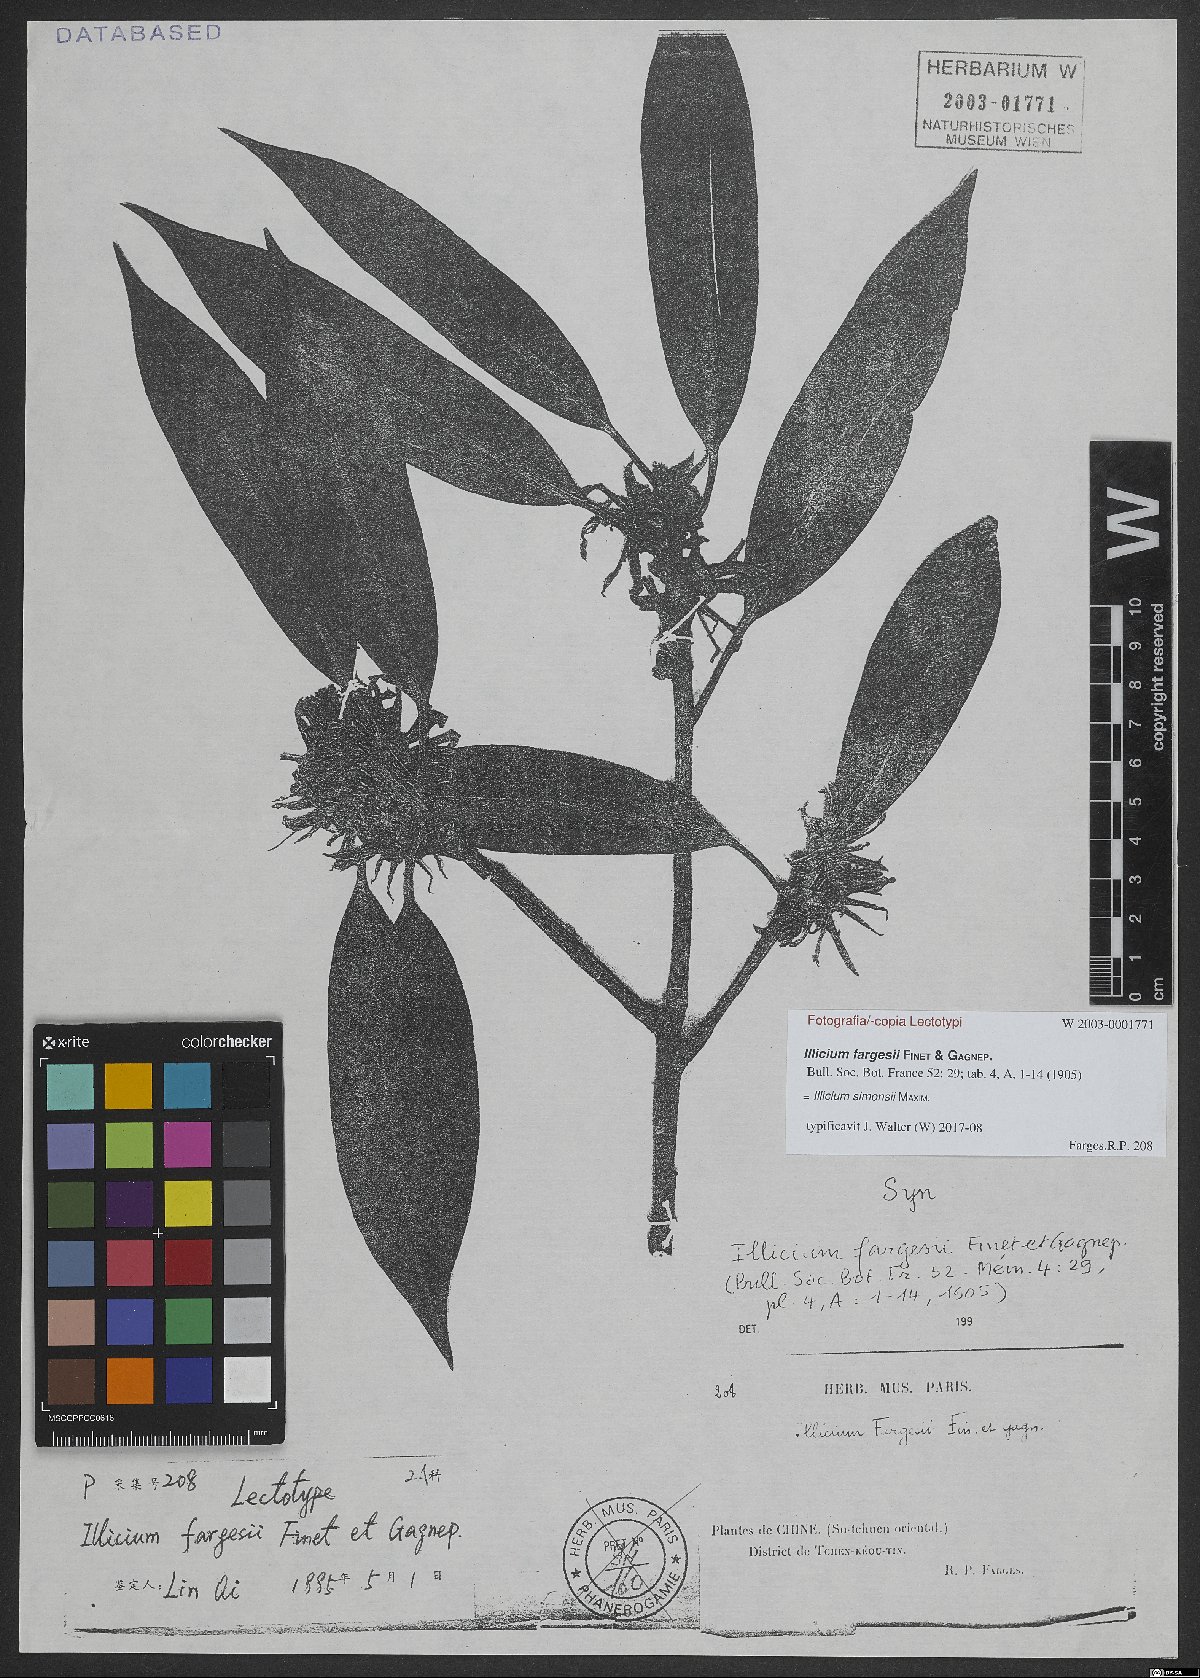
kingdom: Plantae
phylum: Tracheophyta
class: Magnoliopsida
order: Austrobaileyales
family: Schisandraceae
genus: Illicium
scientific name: Illicium simonsii
